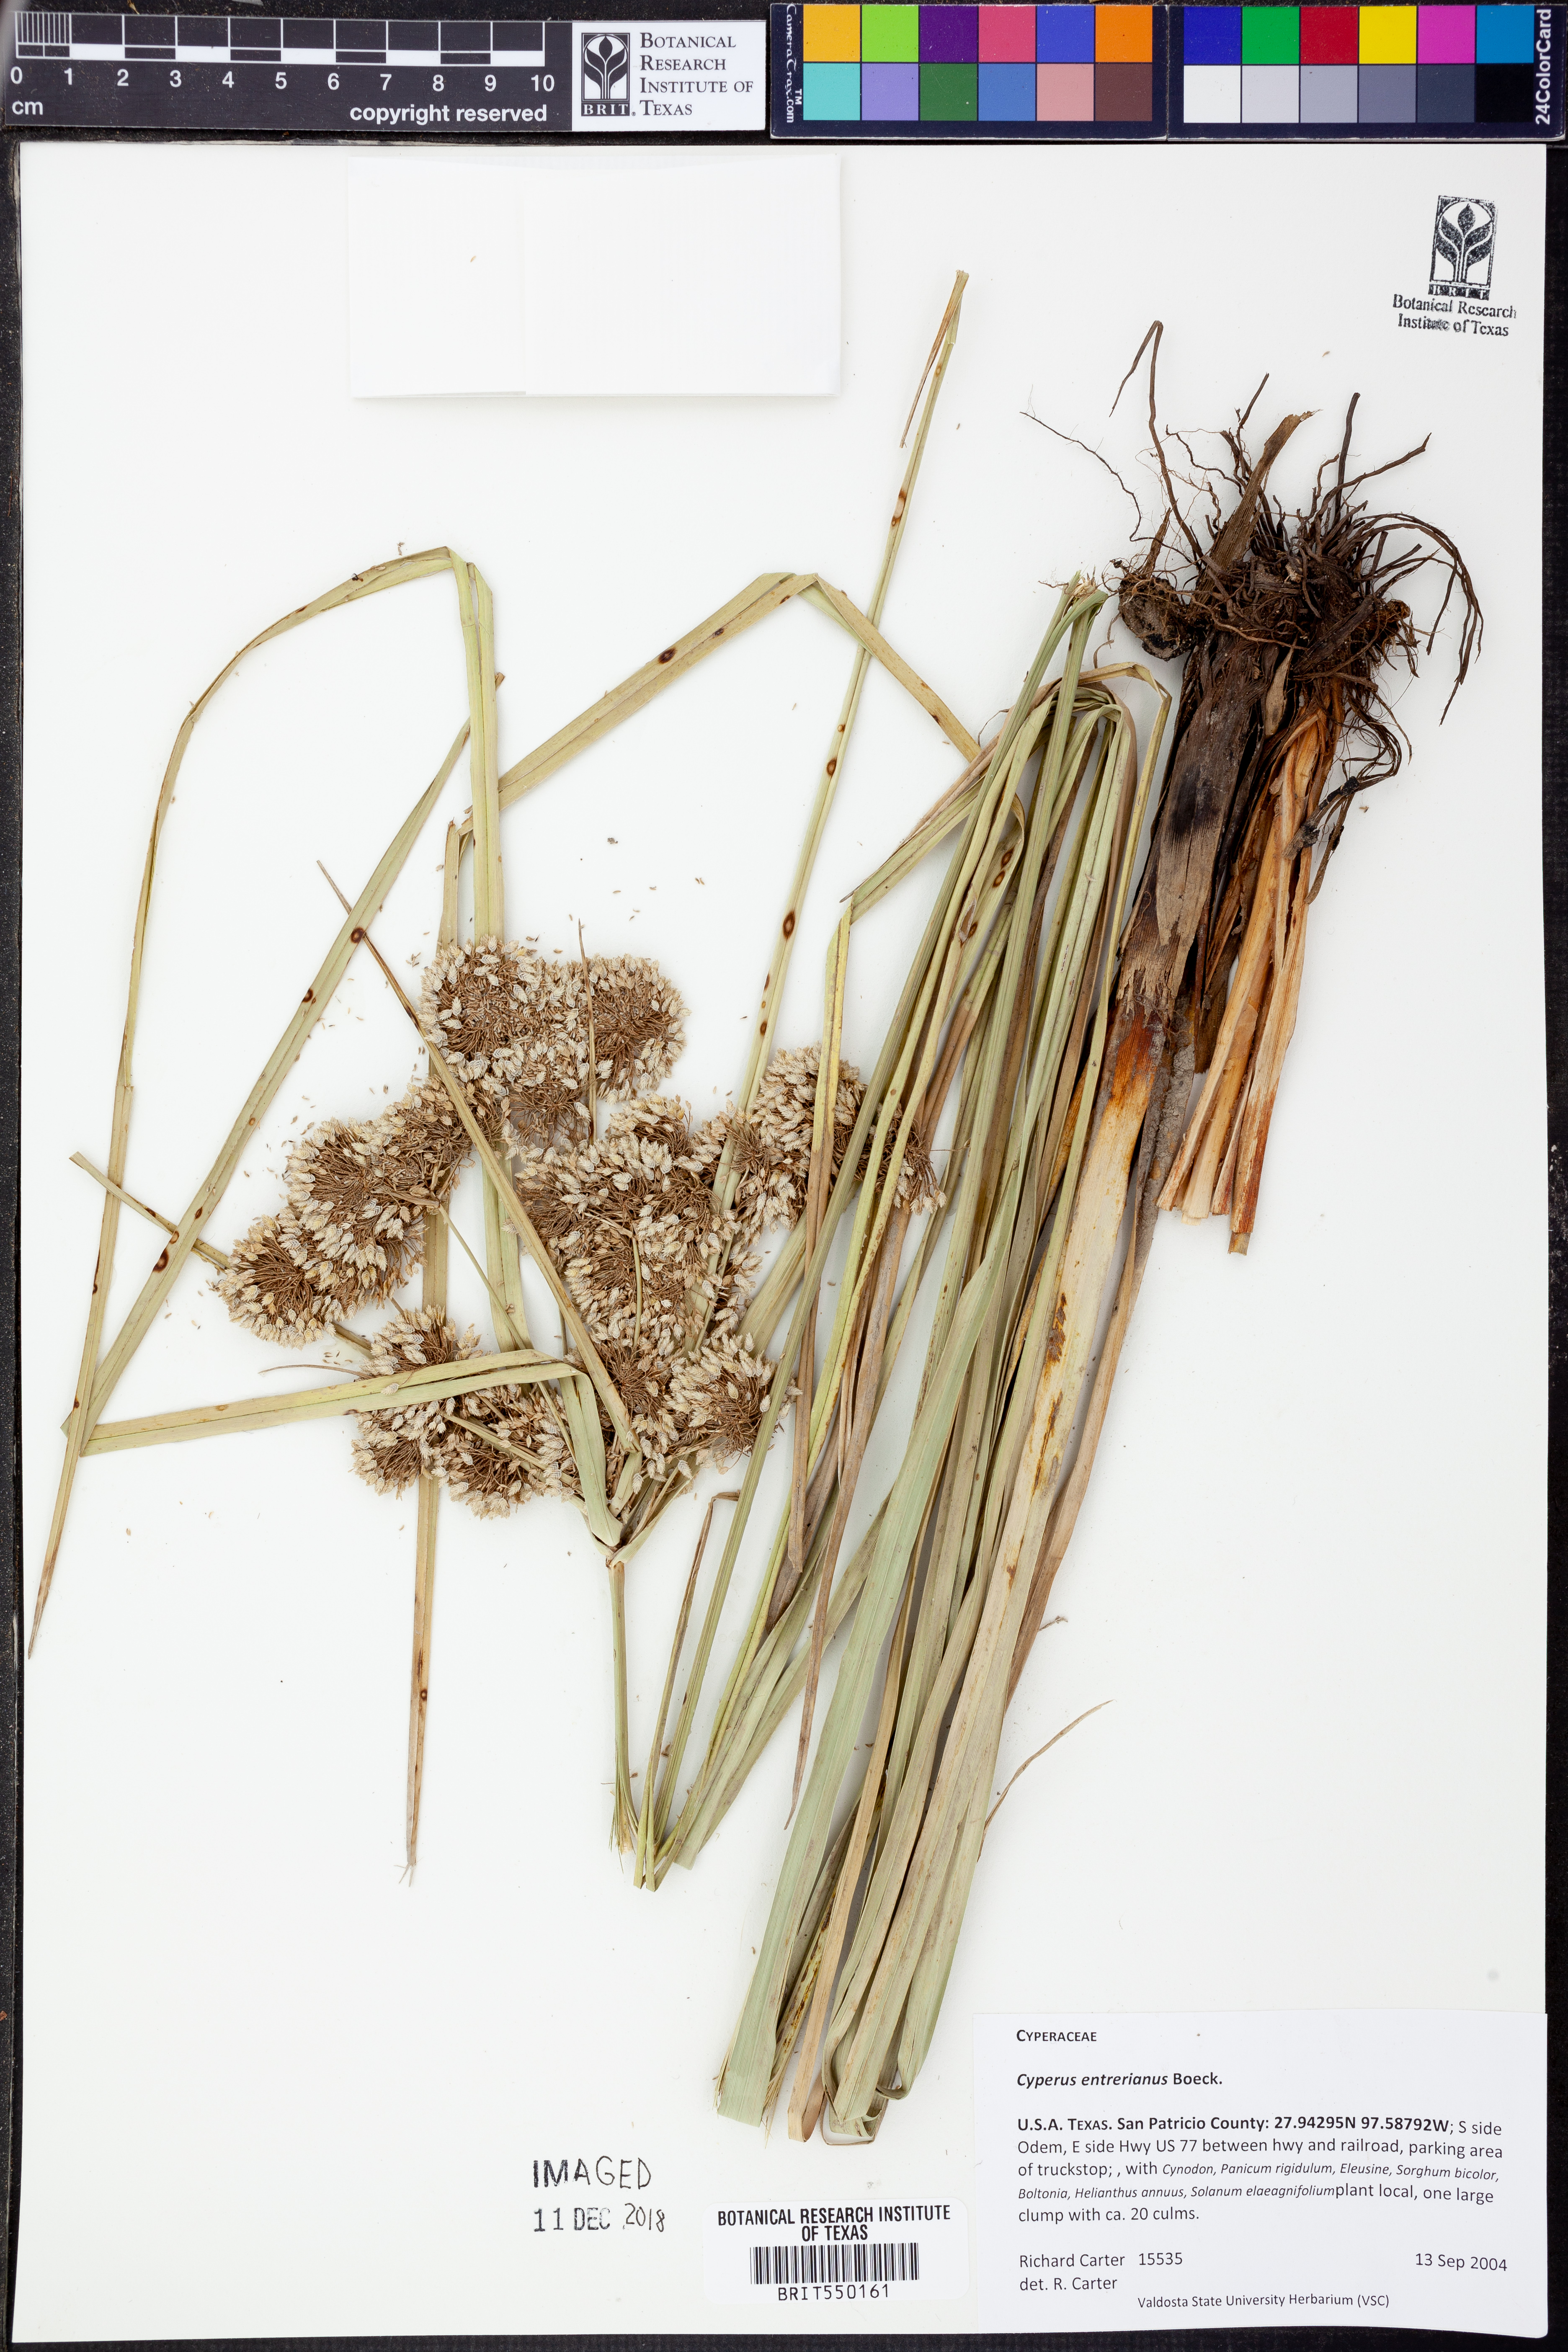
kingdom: Plantae
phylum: Tracheophyta
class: Liliopsida
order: Poales
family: Cyperaceae
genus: Cyperus
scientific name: Cyperus entrerianus
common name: Woodrush flatsedge
